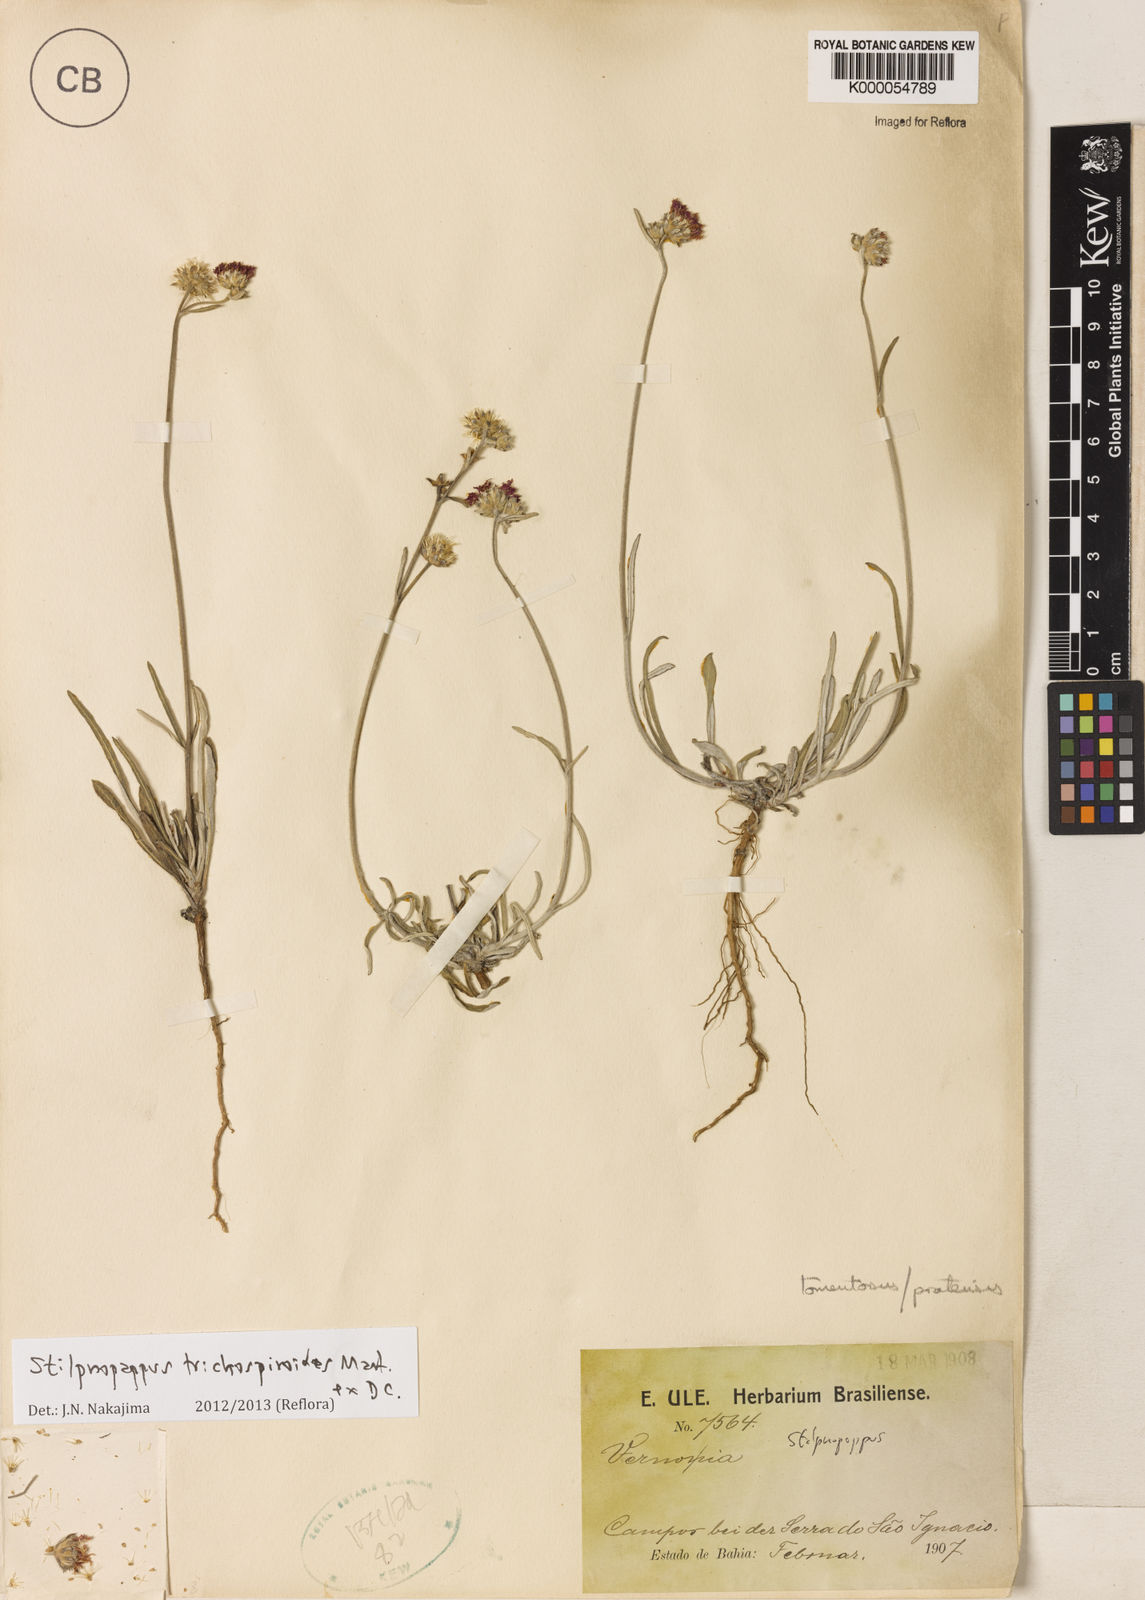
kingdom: Plantae
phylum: Tracheophyta
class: Magnoliopsida
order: Asterales
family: Asteraceae
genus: Stilpnopappus
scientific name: Stilpnopappus
